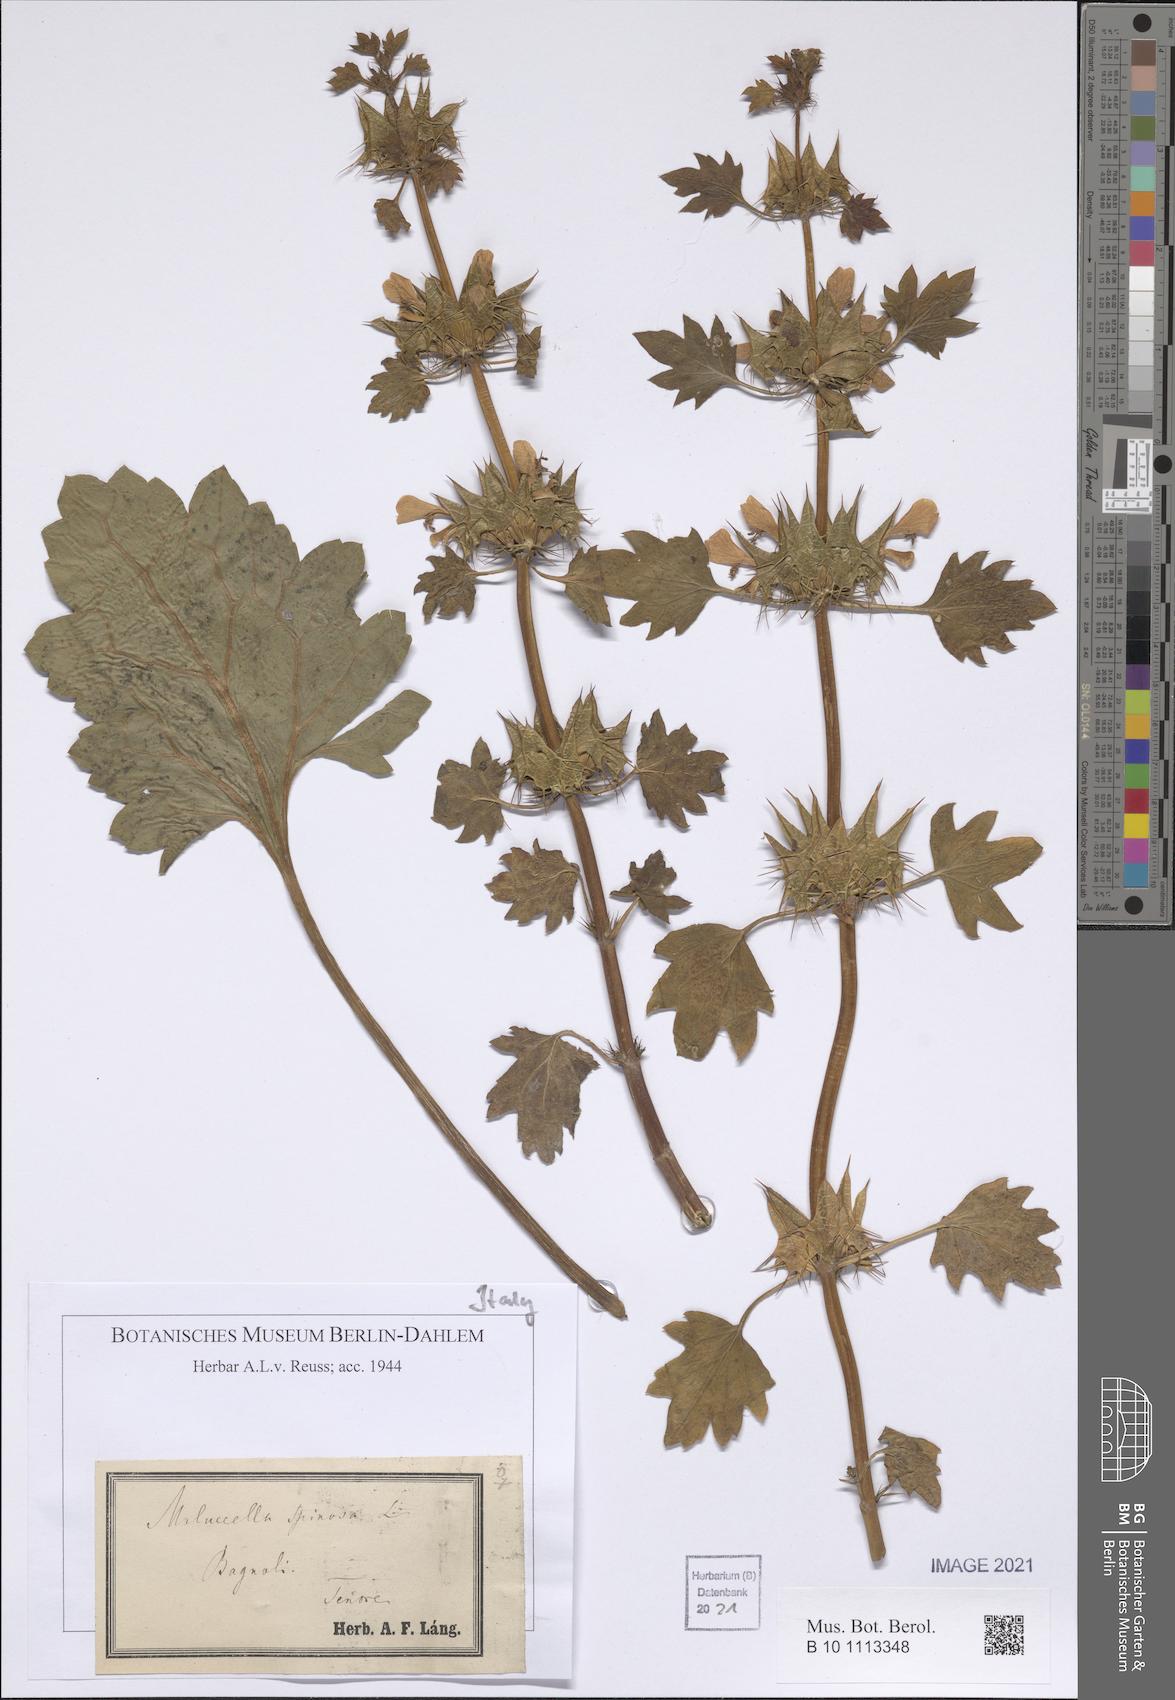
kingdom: Plantae
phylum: Tracheophyta
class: Magnoliopsida
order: Lamiales
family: Lamiaceae
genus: Moluccella
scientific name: Moluccella spinosa
